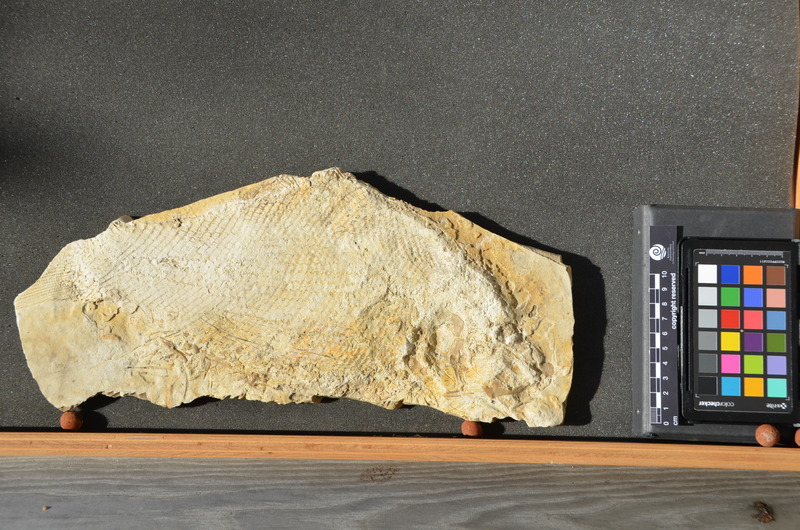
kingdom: Animalia
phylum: Chordata
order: Lepisosteiformes
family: Lepidotidae
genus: Lepidotes
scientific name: Lepidotes intermedius
